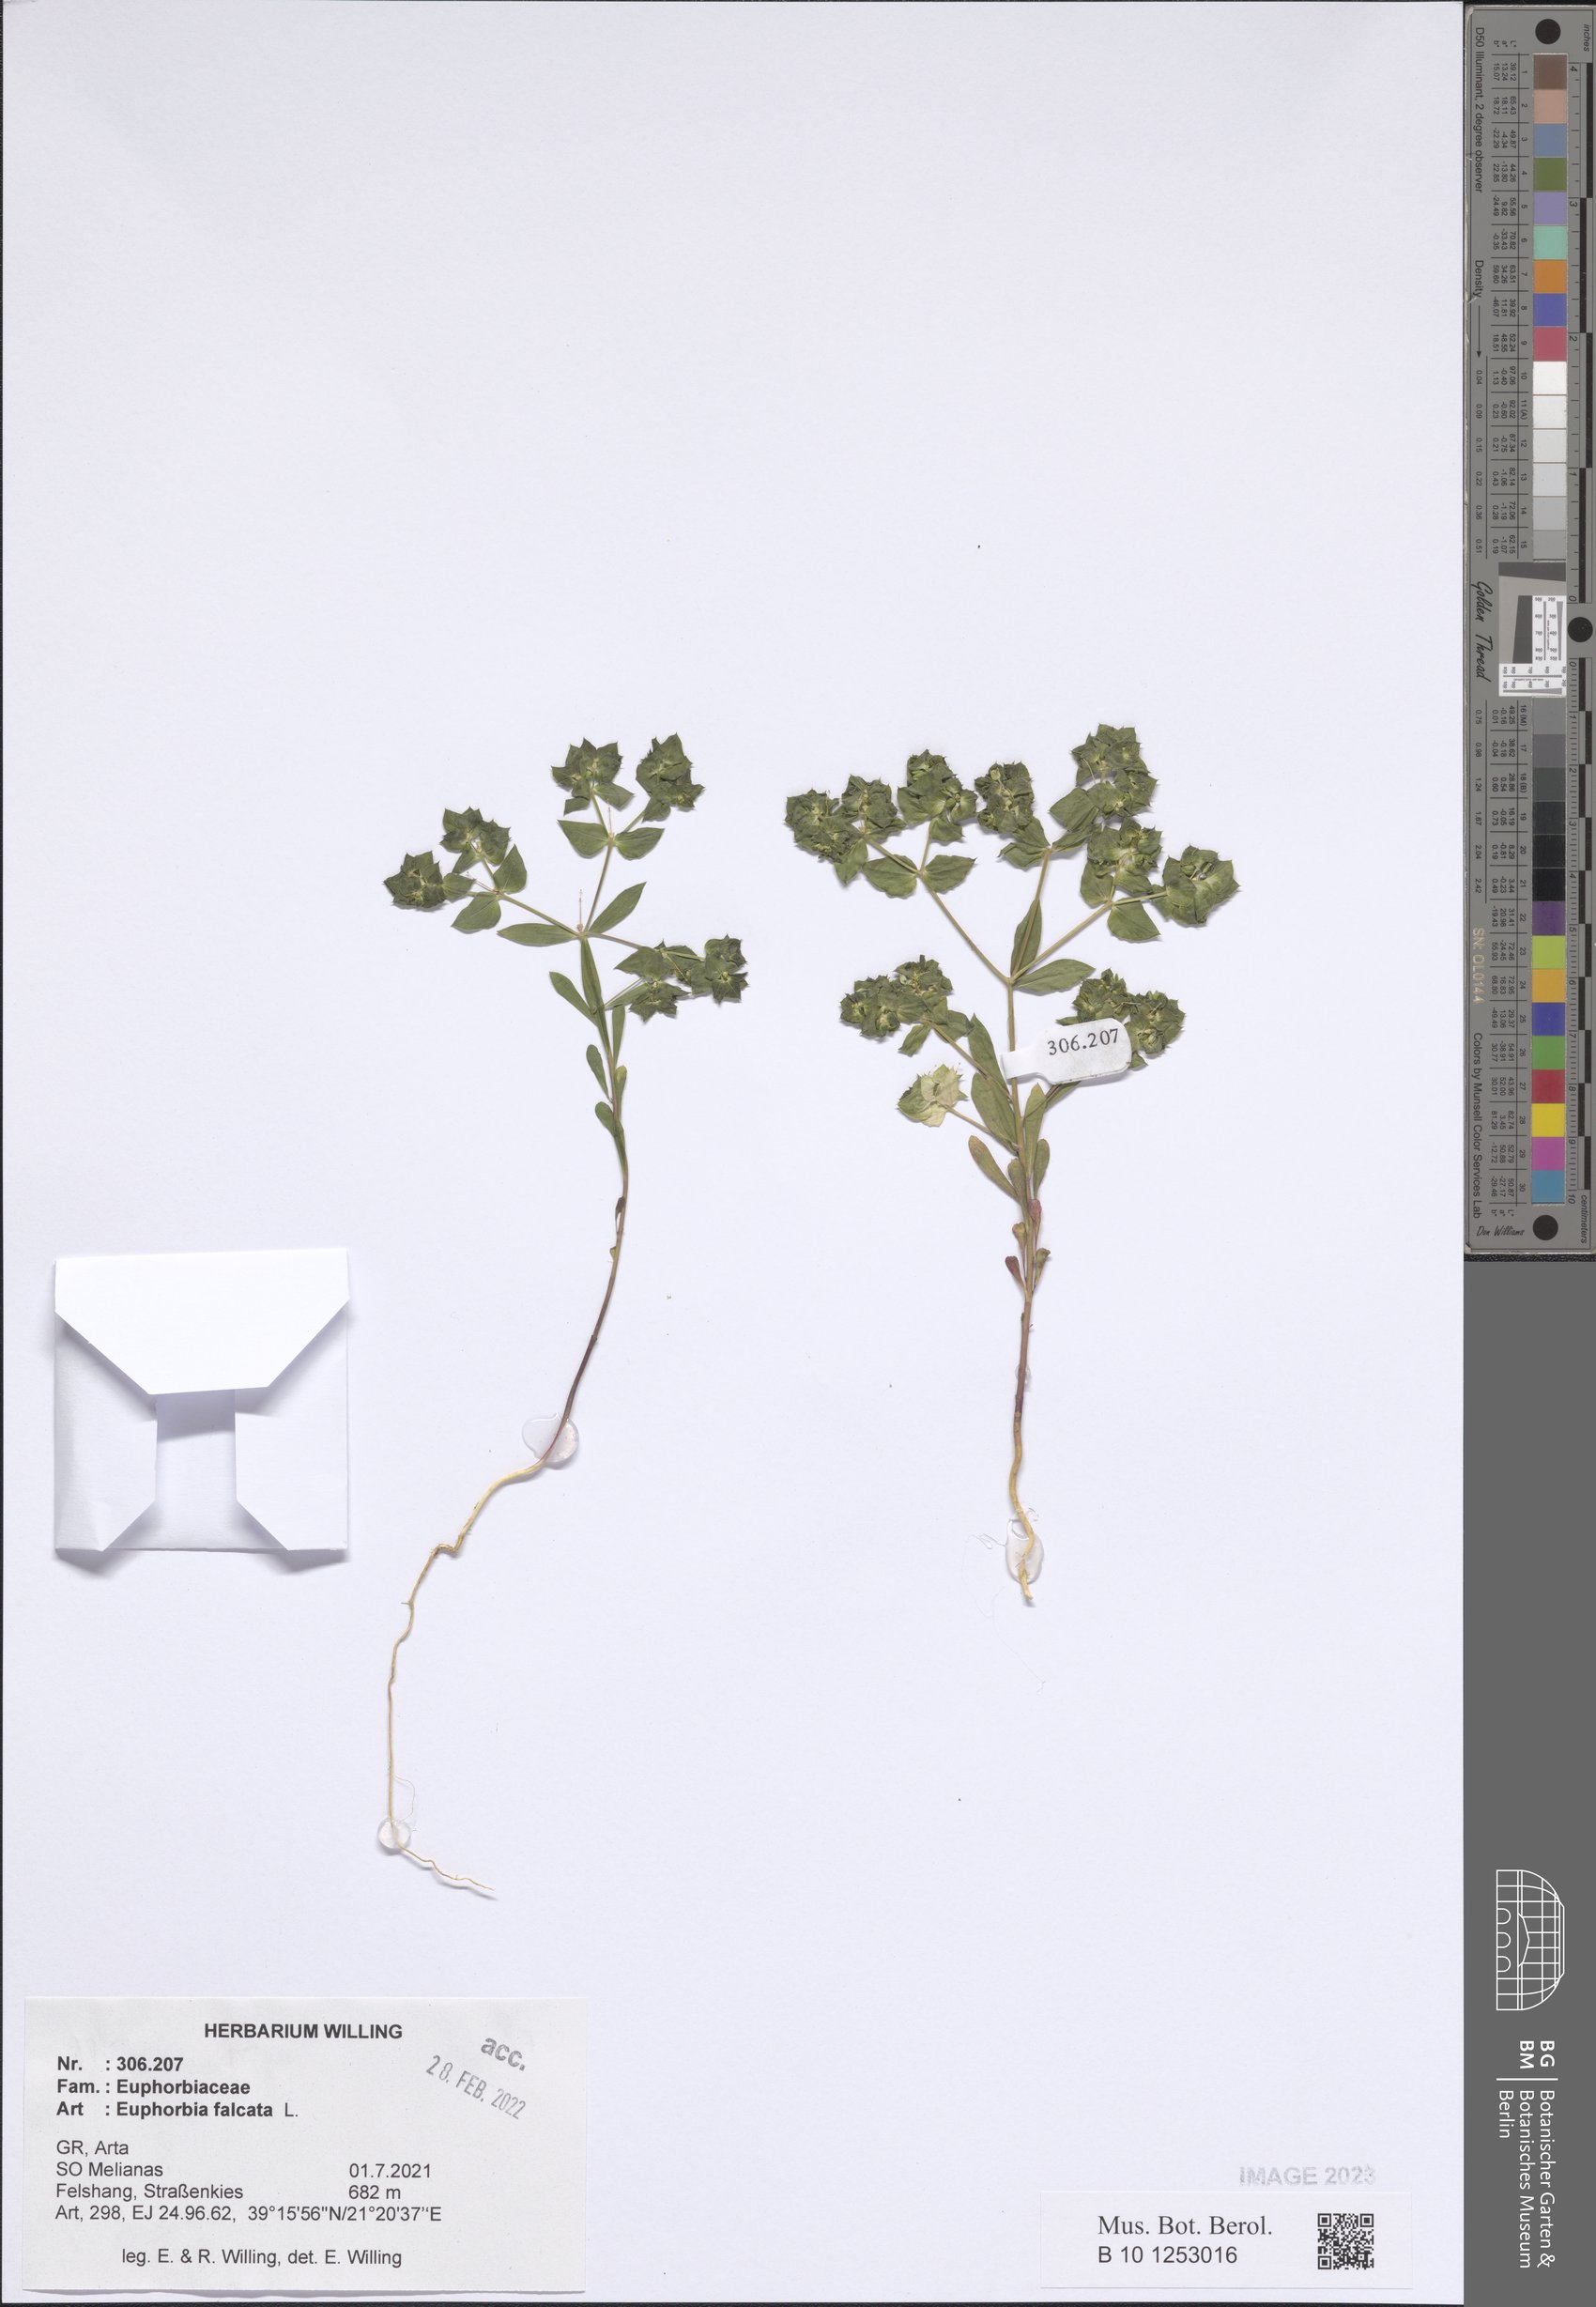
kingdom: Plantae
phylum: Tracheophyta
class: Magnoliopsida
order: Malpighiales
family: Euphorbiaceae
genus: Euphorbia
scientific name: Euphorbia falcata
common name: Sickle spurge
